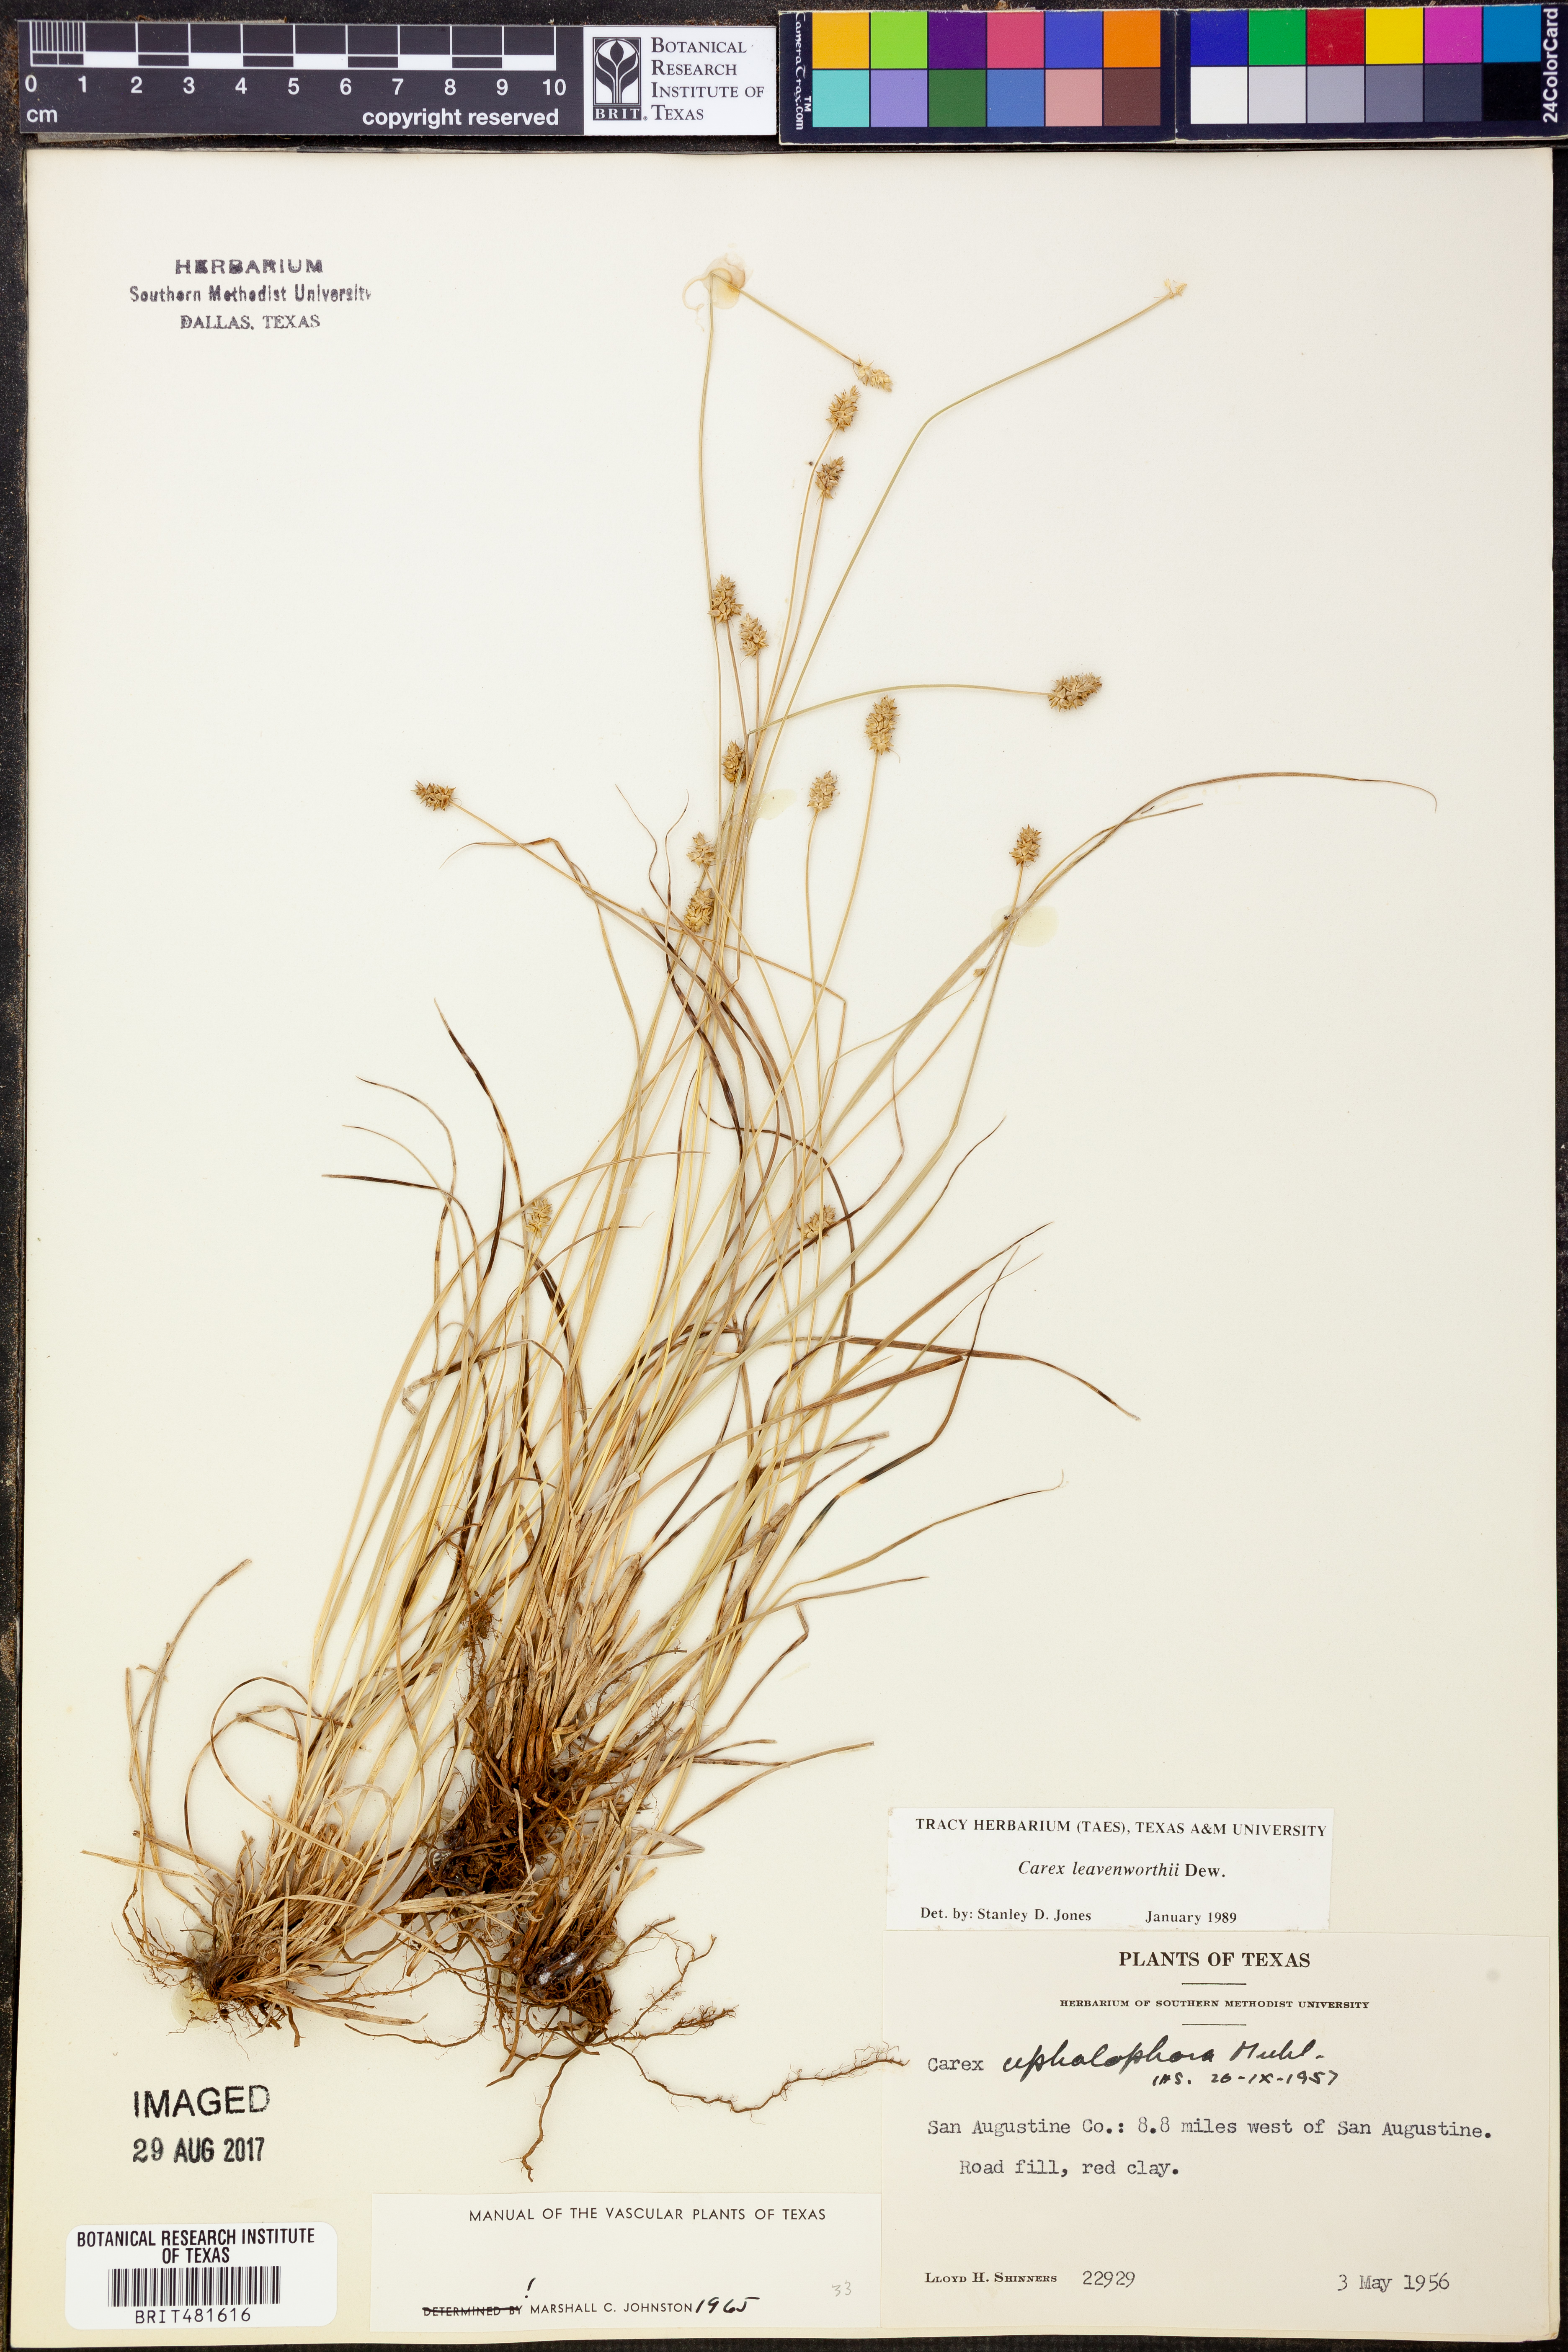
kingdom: Plantae
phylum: Tracheophyta
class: Liliopsida
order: Poales
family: Cyperaceae
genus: Carex
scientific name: Carex leavenworthii
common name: Leavenworth's bracted sedge
